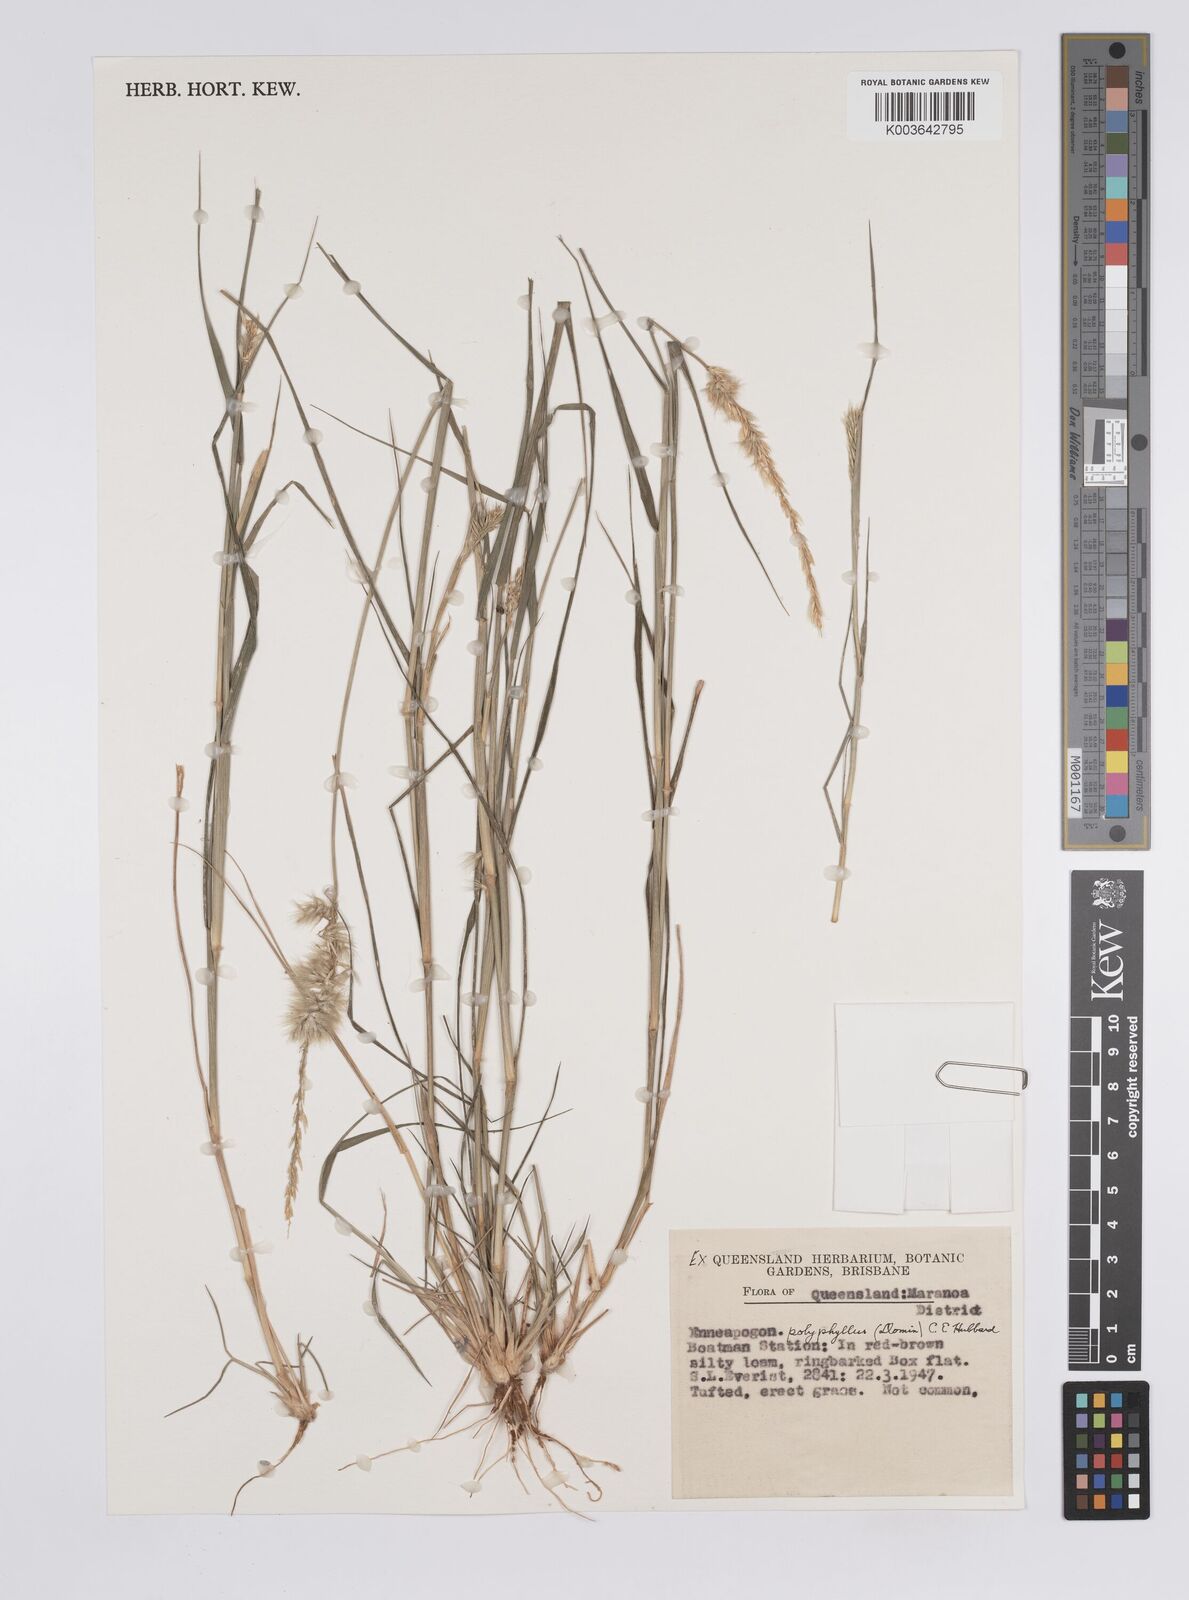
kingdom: Plantae
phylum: Tracheophyta
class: Liliopsida
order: Poales
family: Poaceae
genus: Enneapogon
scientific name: Enneapogon polyphyllus
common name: Leafy nineawn
